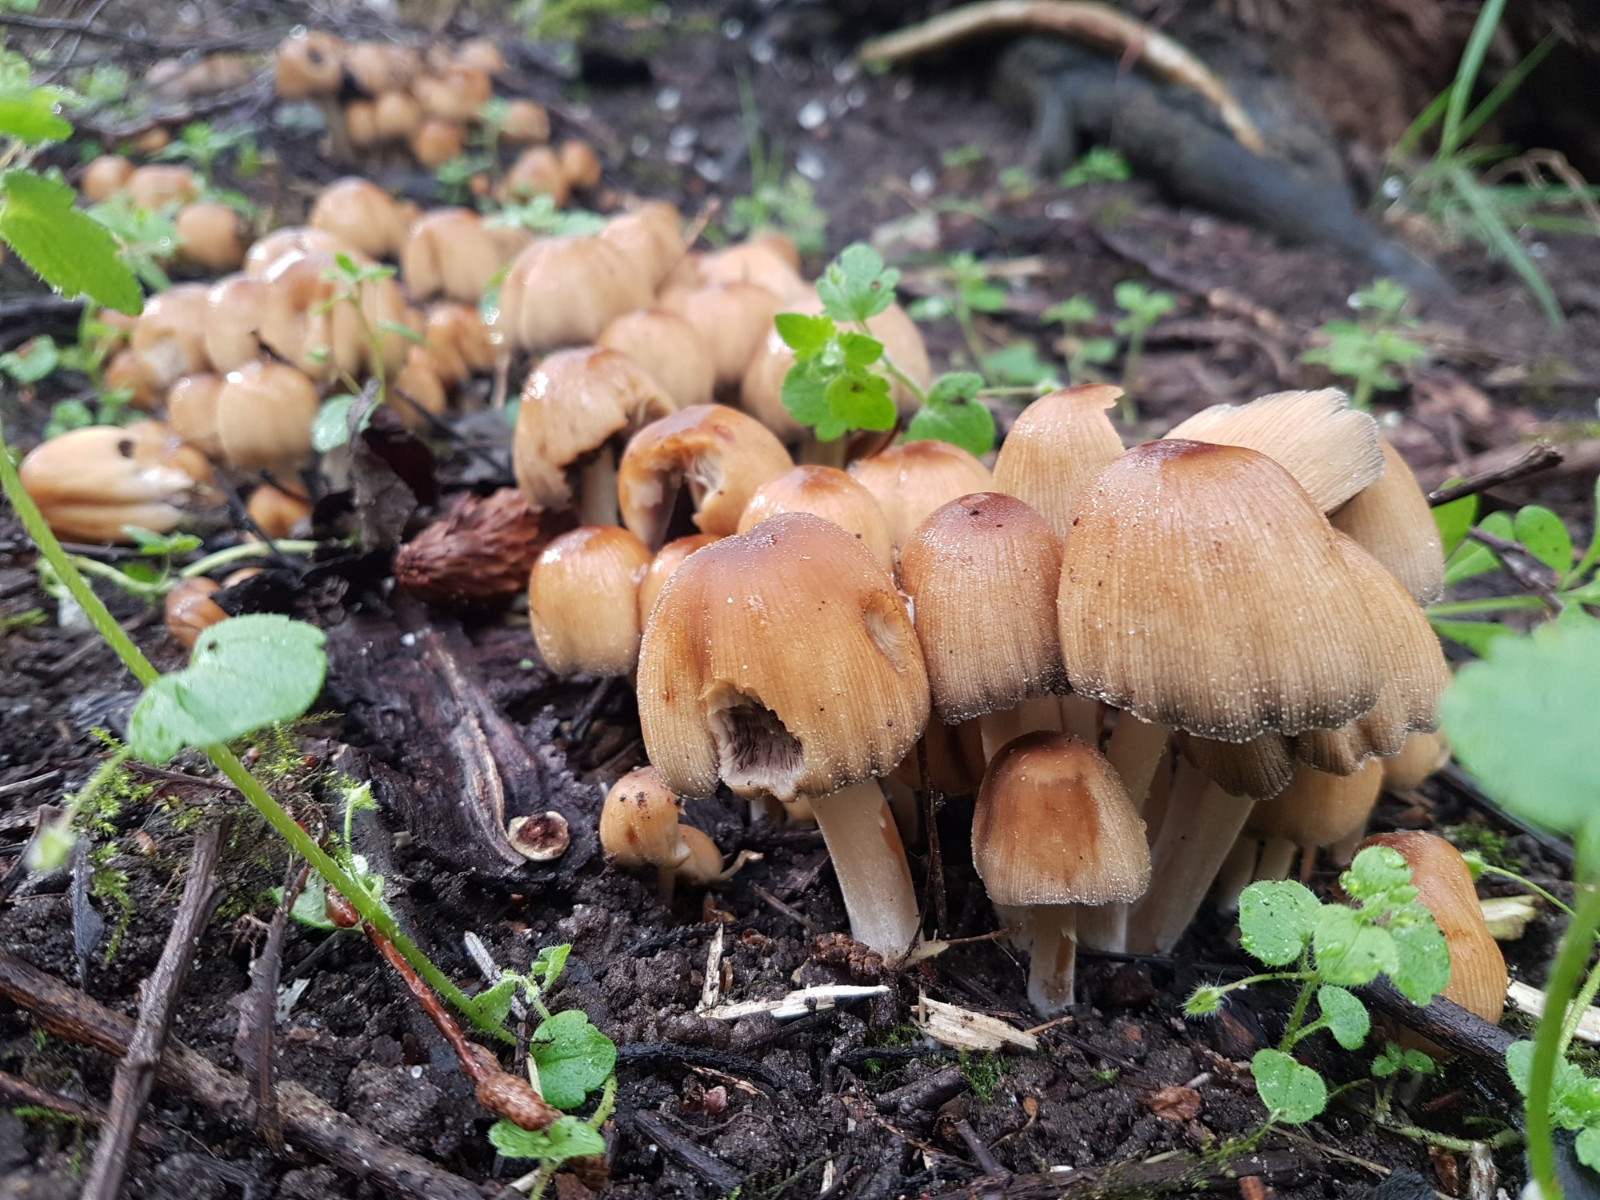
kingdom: Fungi
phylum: Basidiomycota
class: Agaricomycetes
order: Agaricales
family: Psathyrellaceae
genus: Coprinellus
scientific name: Coprinellus micaceus
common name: glimmer-blækhat
